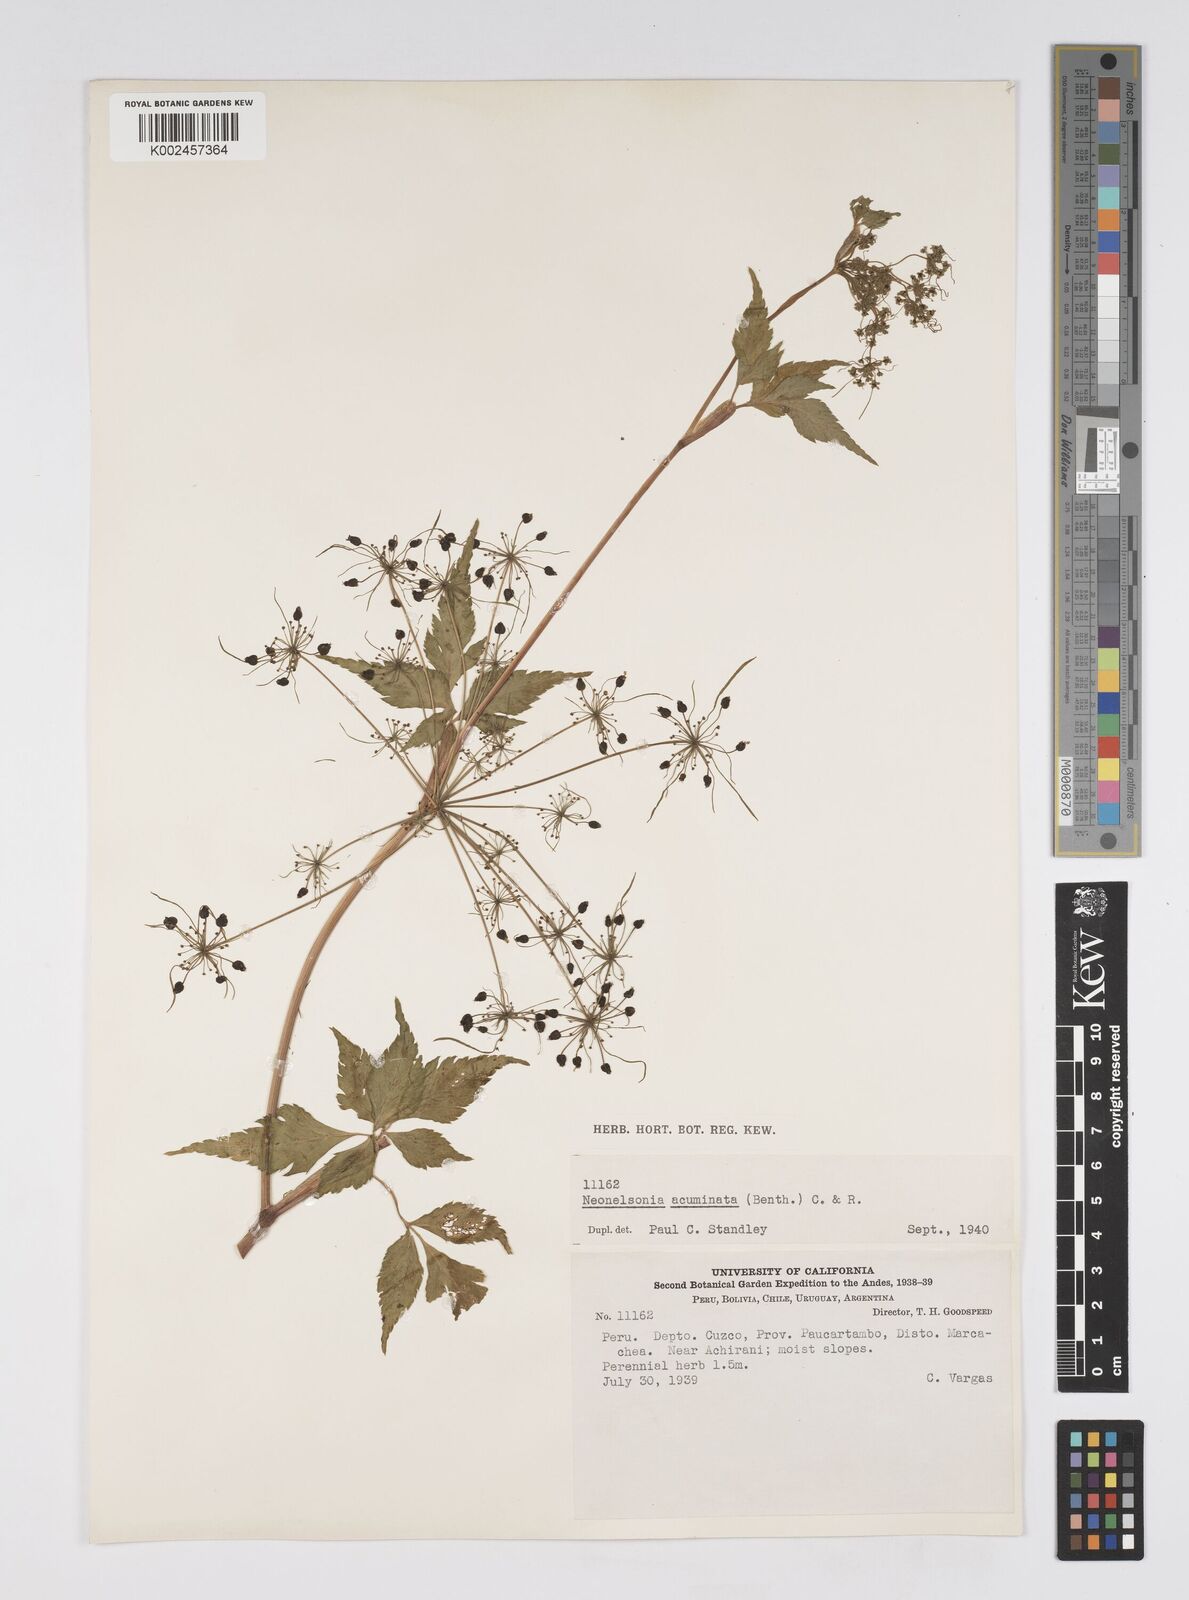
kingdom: Plantae
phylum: Tracheophyta
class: Magnoliopsida
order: Apiales
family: Apiaceae
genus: Neonelsonia
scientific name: Neonelsonia acuminata
